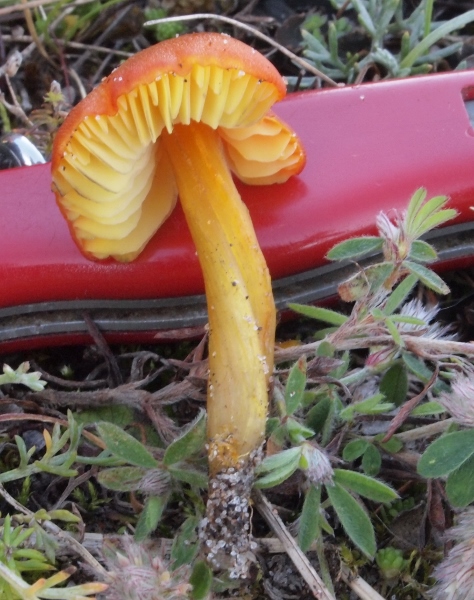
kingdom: Fungi
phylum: Basidiomycota
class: Agaricomycetes
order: Agaricales
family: Hygrophoraceae
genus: Hygrocybe
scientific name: Hygrocybe conica
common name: kegle-vokshat
